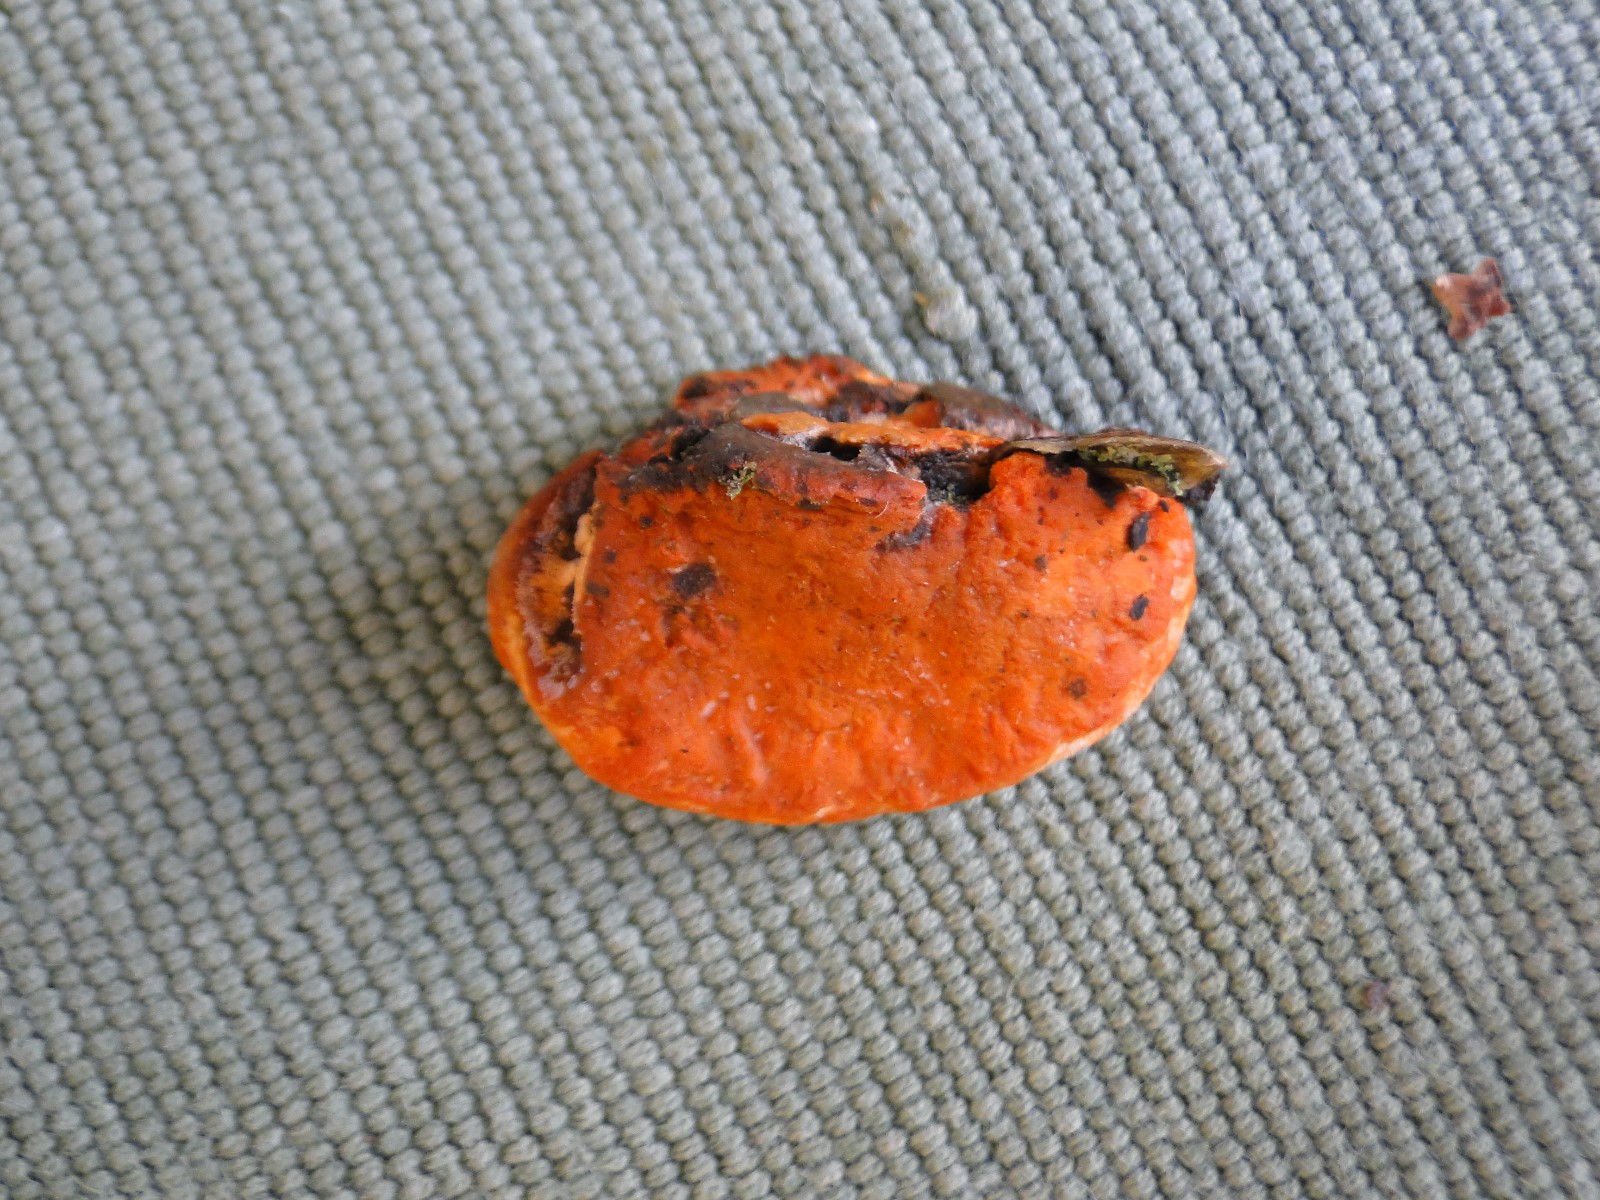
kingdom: Fungi
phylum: Basidiomycota
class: Agaricomycetes
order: Polyporales
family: Polyporaceae
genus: Trametes
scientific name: Trametes cinnabarina
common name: cinnoberporesvamp
